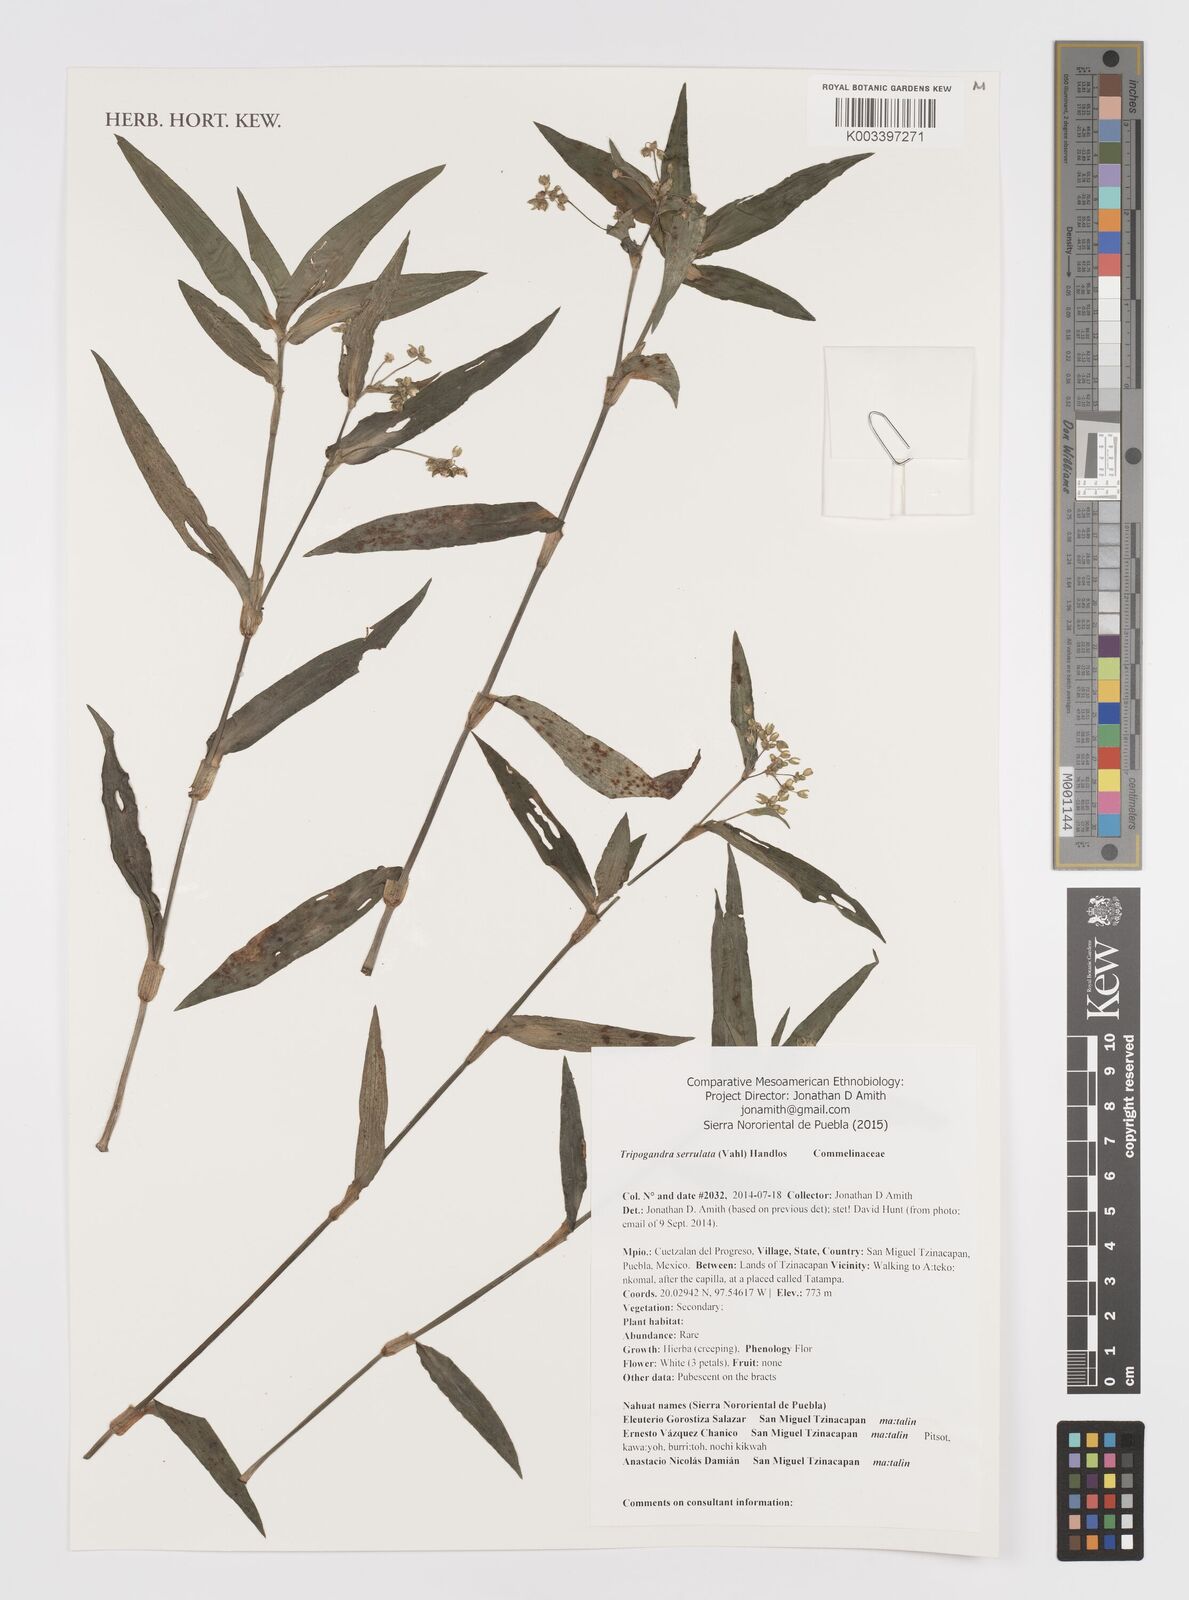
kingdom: Plantae
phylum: Tracheophyta
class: Liliopsida
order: Commelinales
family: Commelinaceae
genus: Callisia
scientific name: Callisia serrulata
